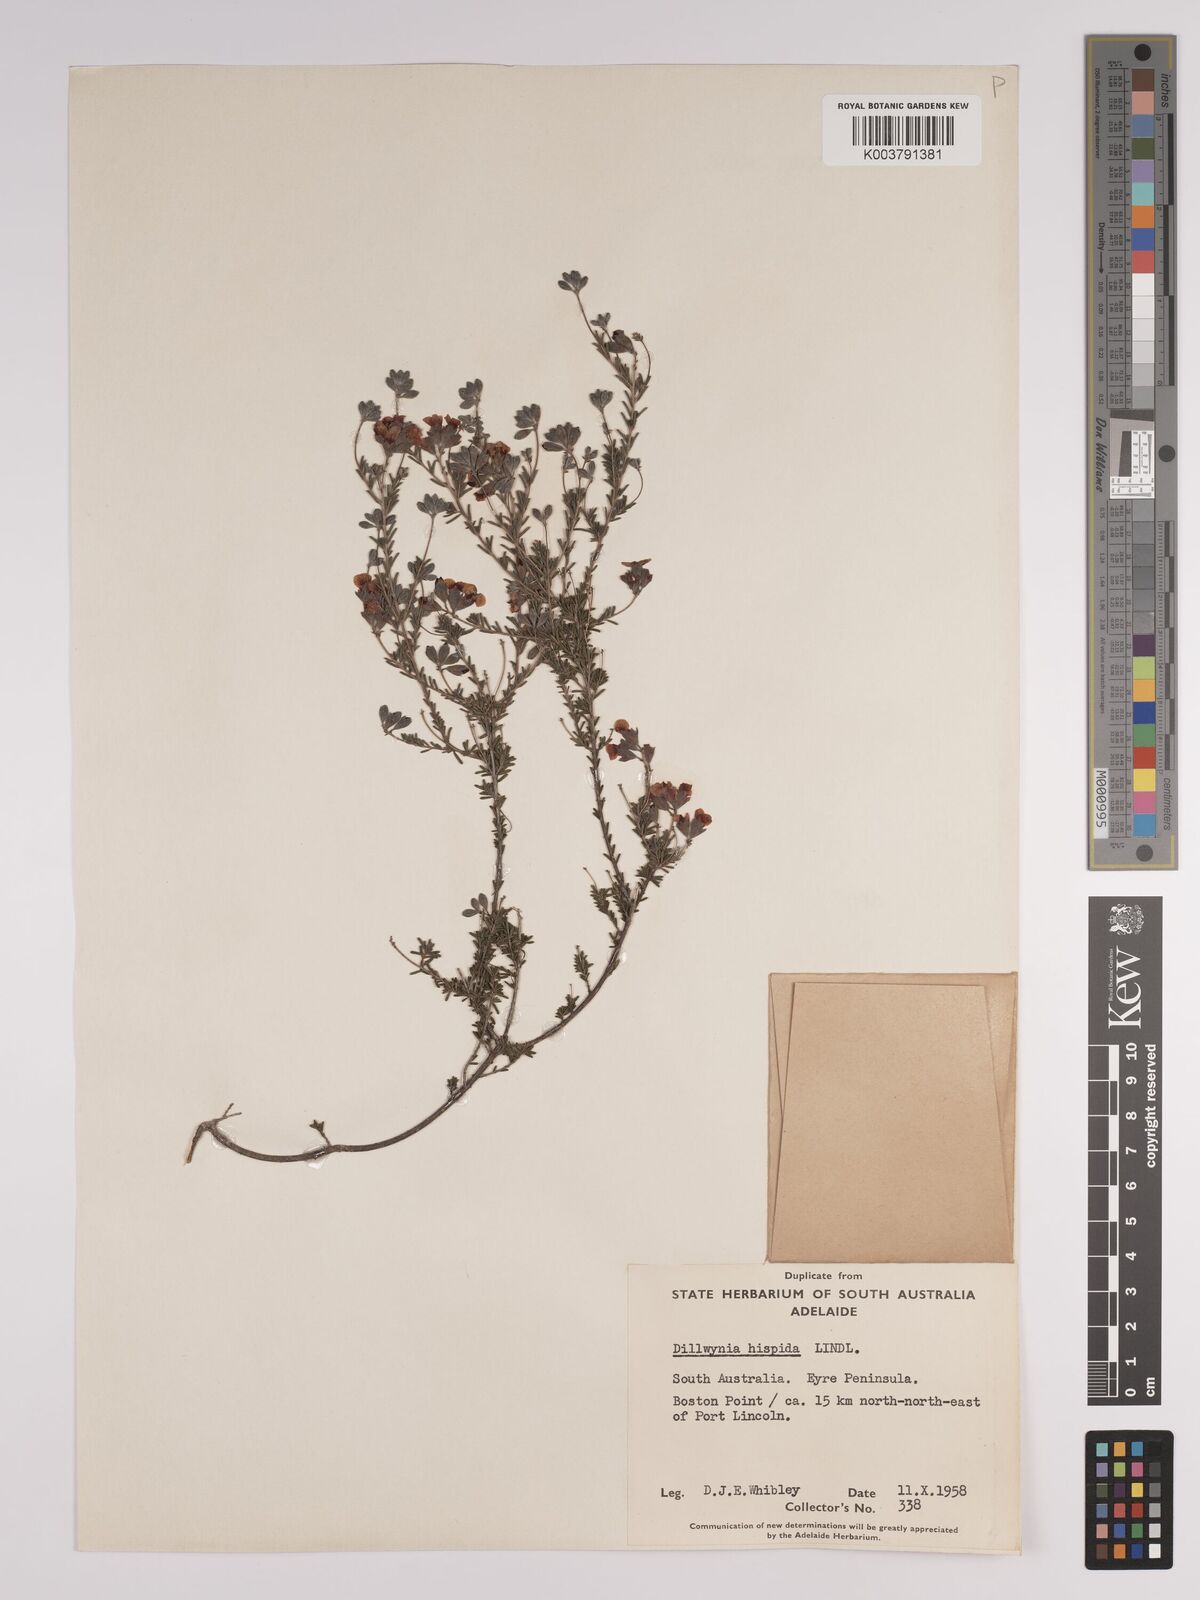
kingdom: Plantae
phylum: Tracheophyta
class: Magnoliopsida
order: Fabales
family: Fabaceae
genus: Dillwynia
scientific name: Dillwynia hispida
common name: Red parrot-pea
